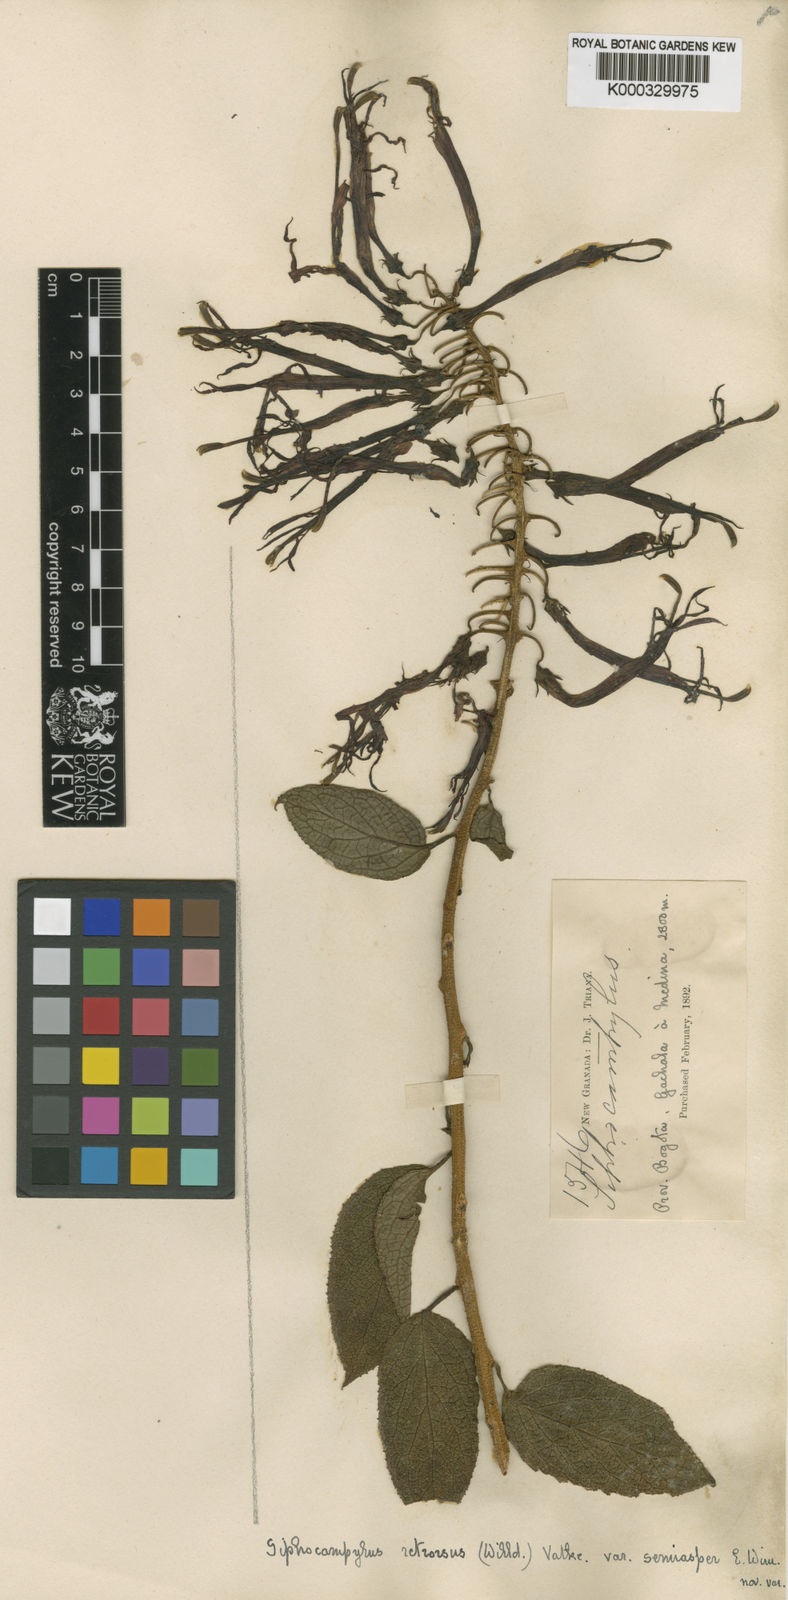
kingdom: Plantae
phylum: Tracheophyta
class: Magnoliopsida
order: Asterales
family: Campanulaceae
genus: Siphocampylus
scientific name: Siphocampylus retrorsus
